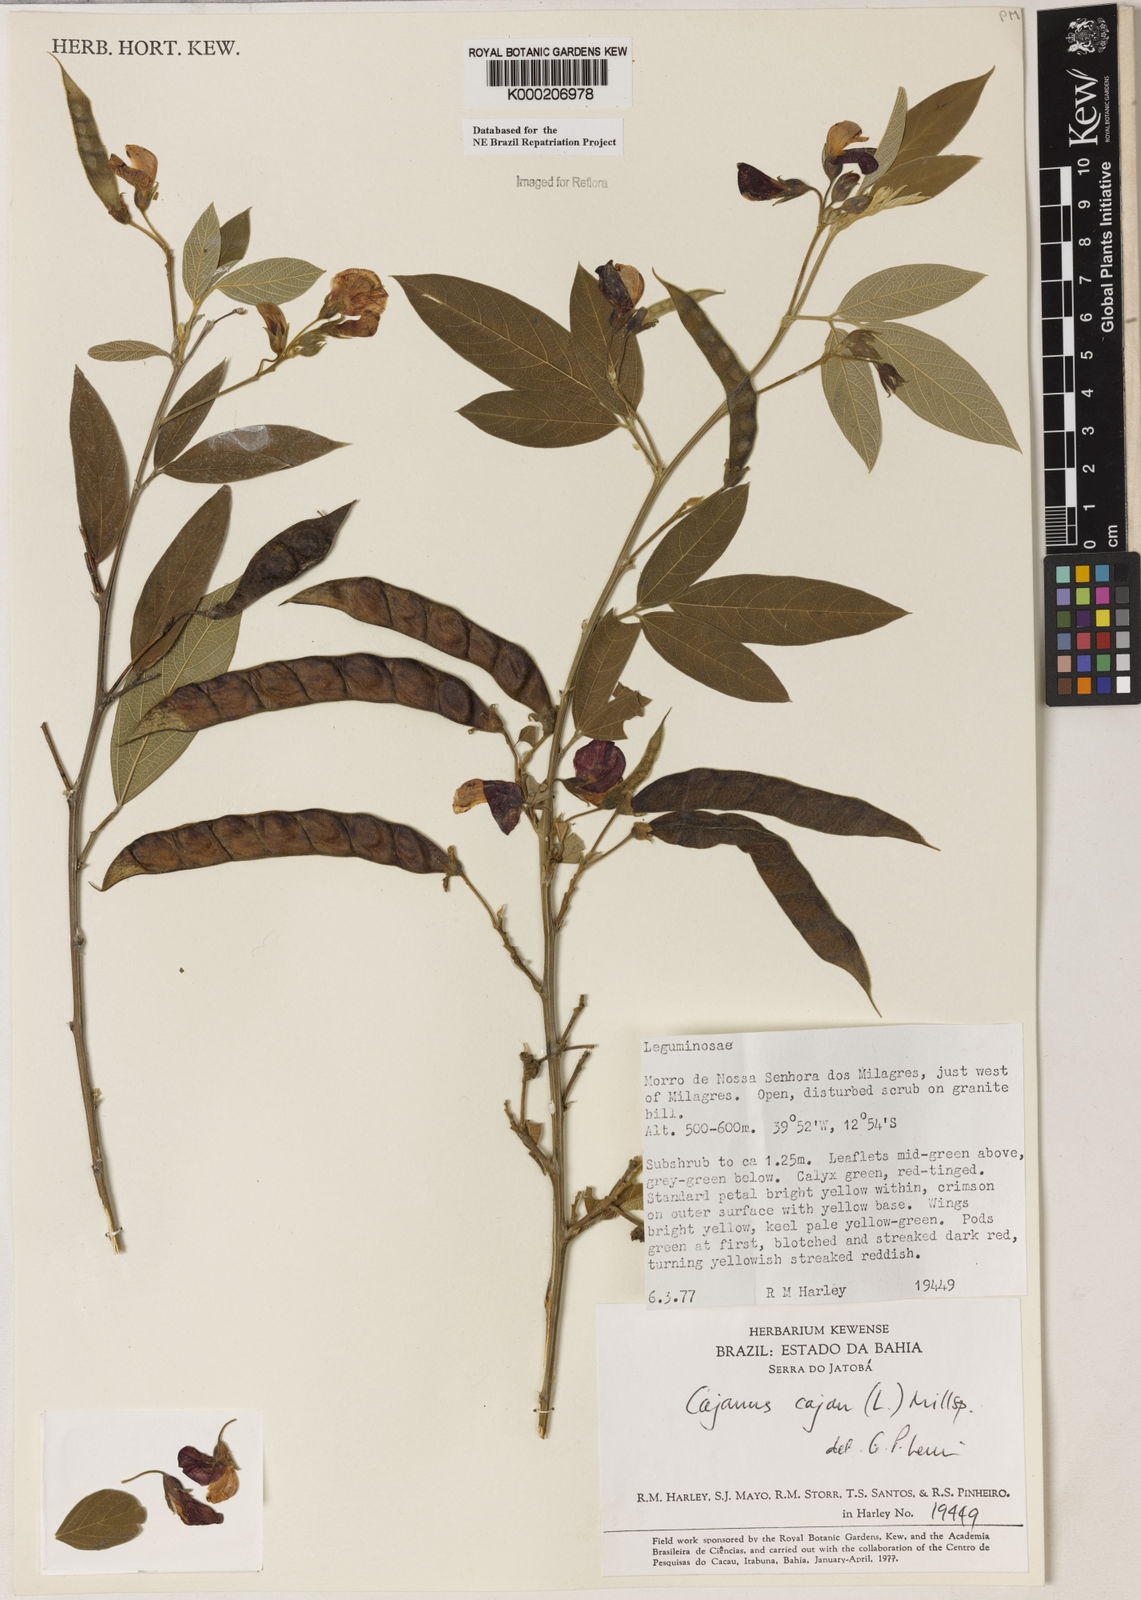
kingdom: Plantae
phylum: Tracheophyta
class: Magnoliopsida
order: Fabales
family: Fabaceae
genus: Cajanus
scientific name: Cajanus
